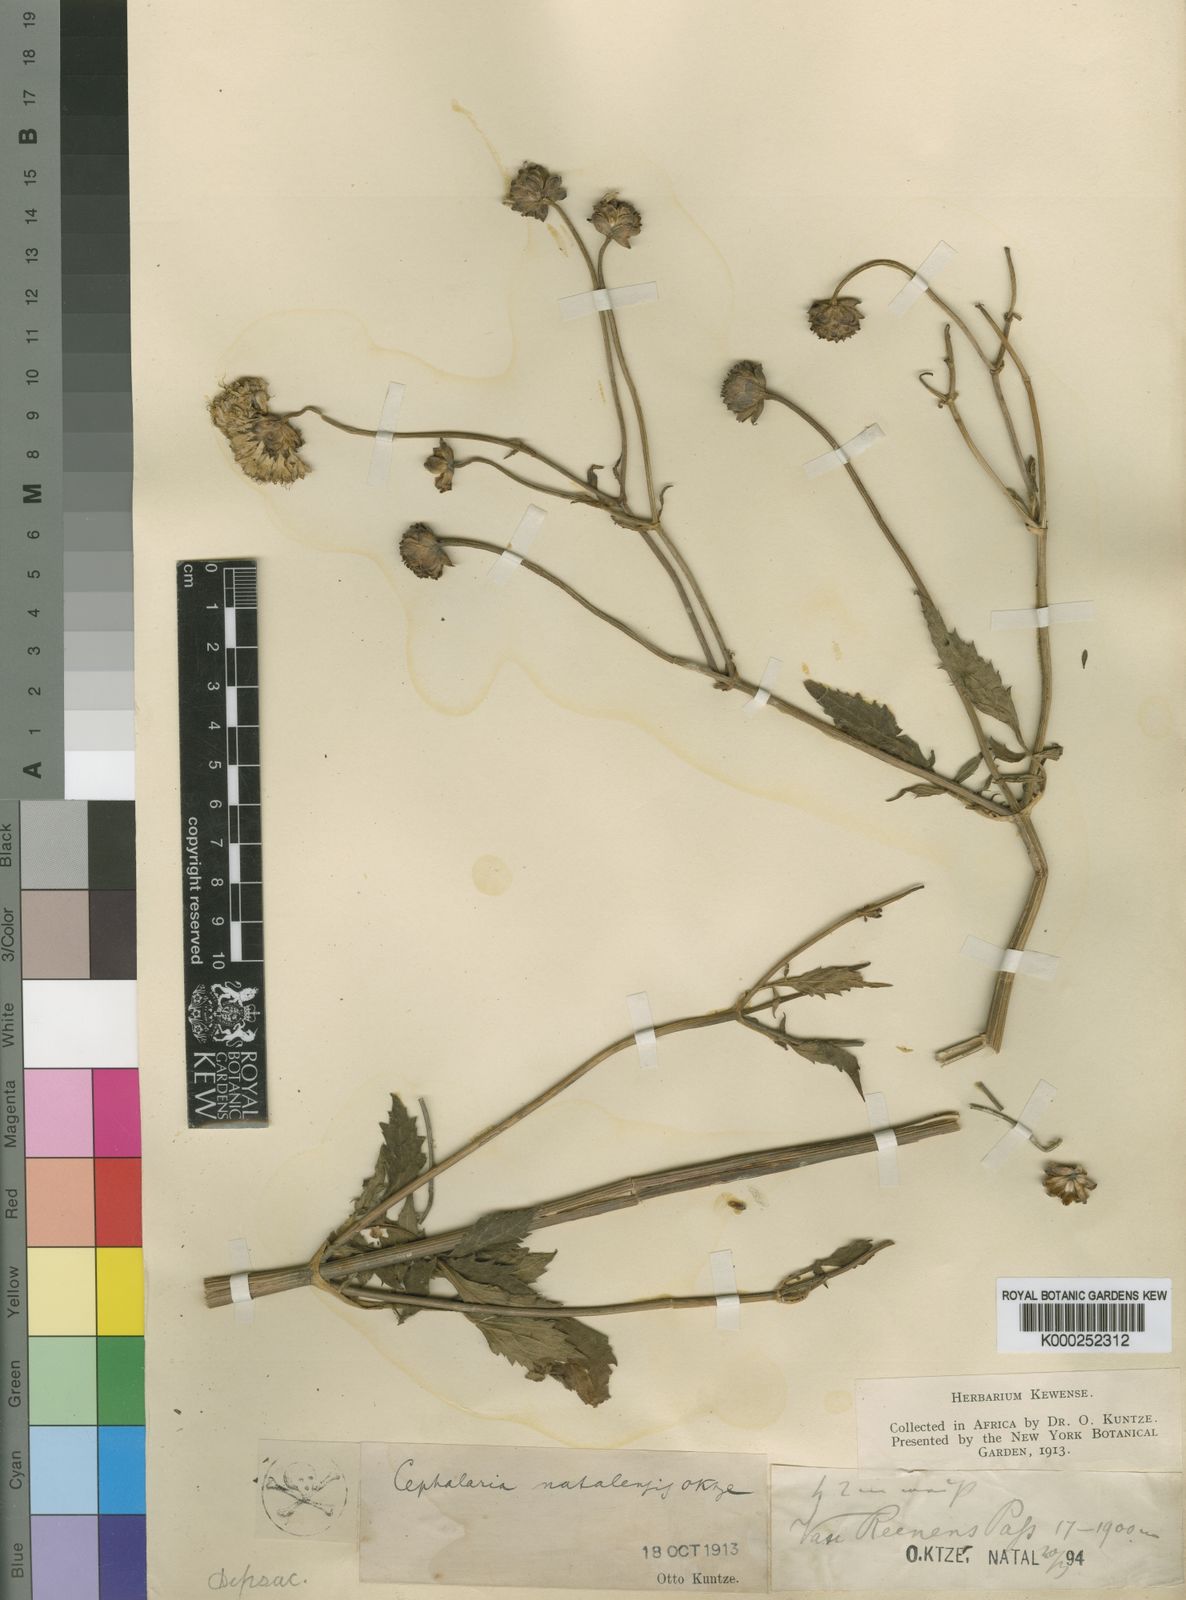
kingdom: Plantae
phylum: Tracheophyta
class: Magnoliopsida
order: Dipsacales
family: Caprifoliaceae
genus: Cephalaria
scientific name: Cephalaria natalensis
